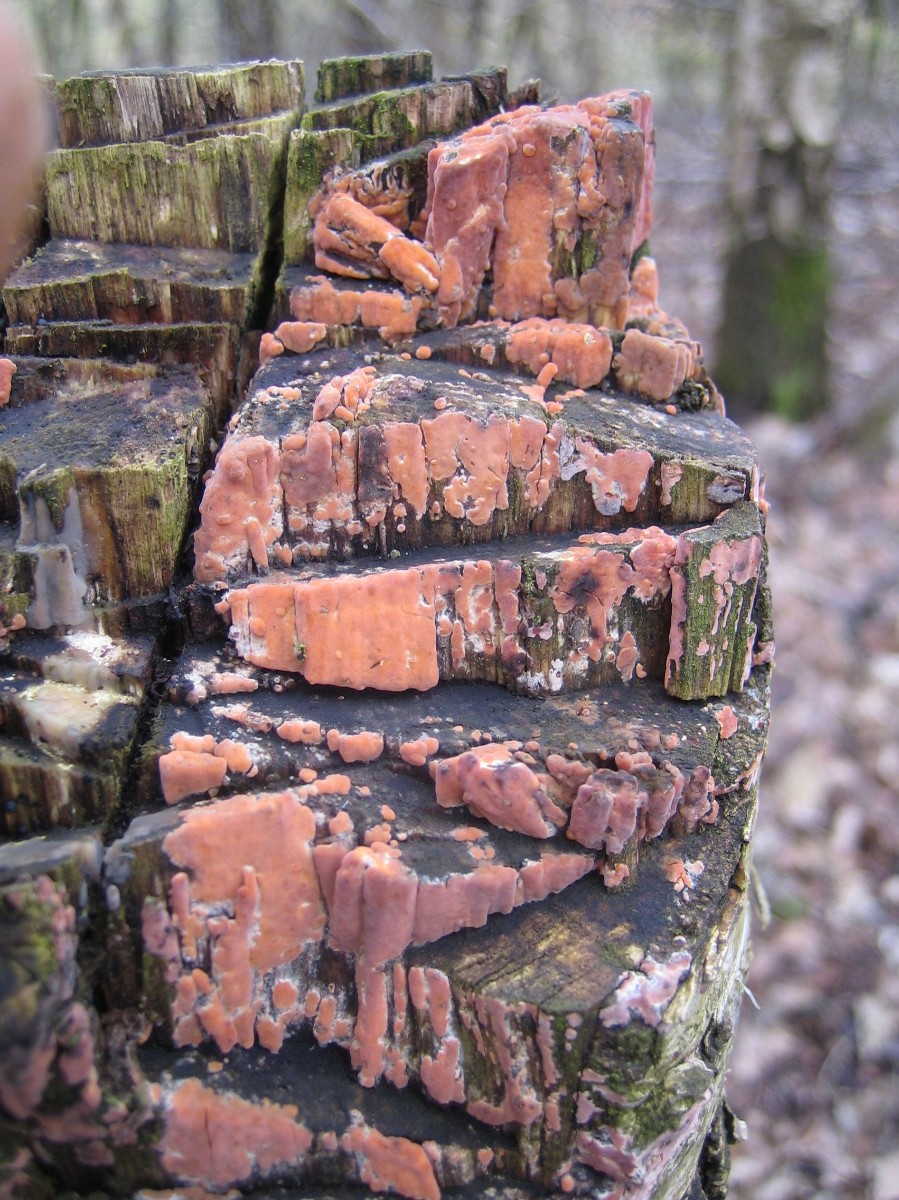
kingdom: Fungi
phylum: Basidiomycota
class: Agaricomycetes
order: Russulales
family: Peniophoraceae
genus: Peniophora
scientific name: Peniophora incarnata
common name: laksefarvet voksskind
